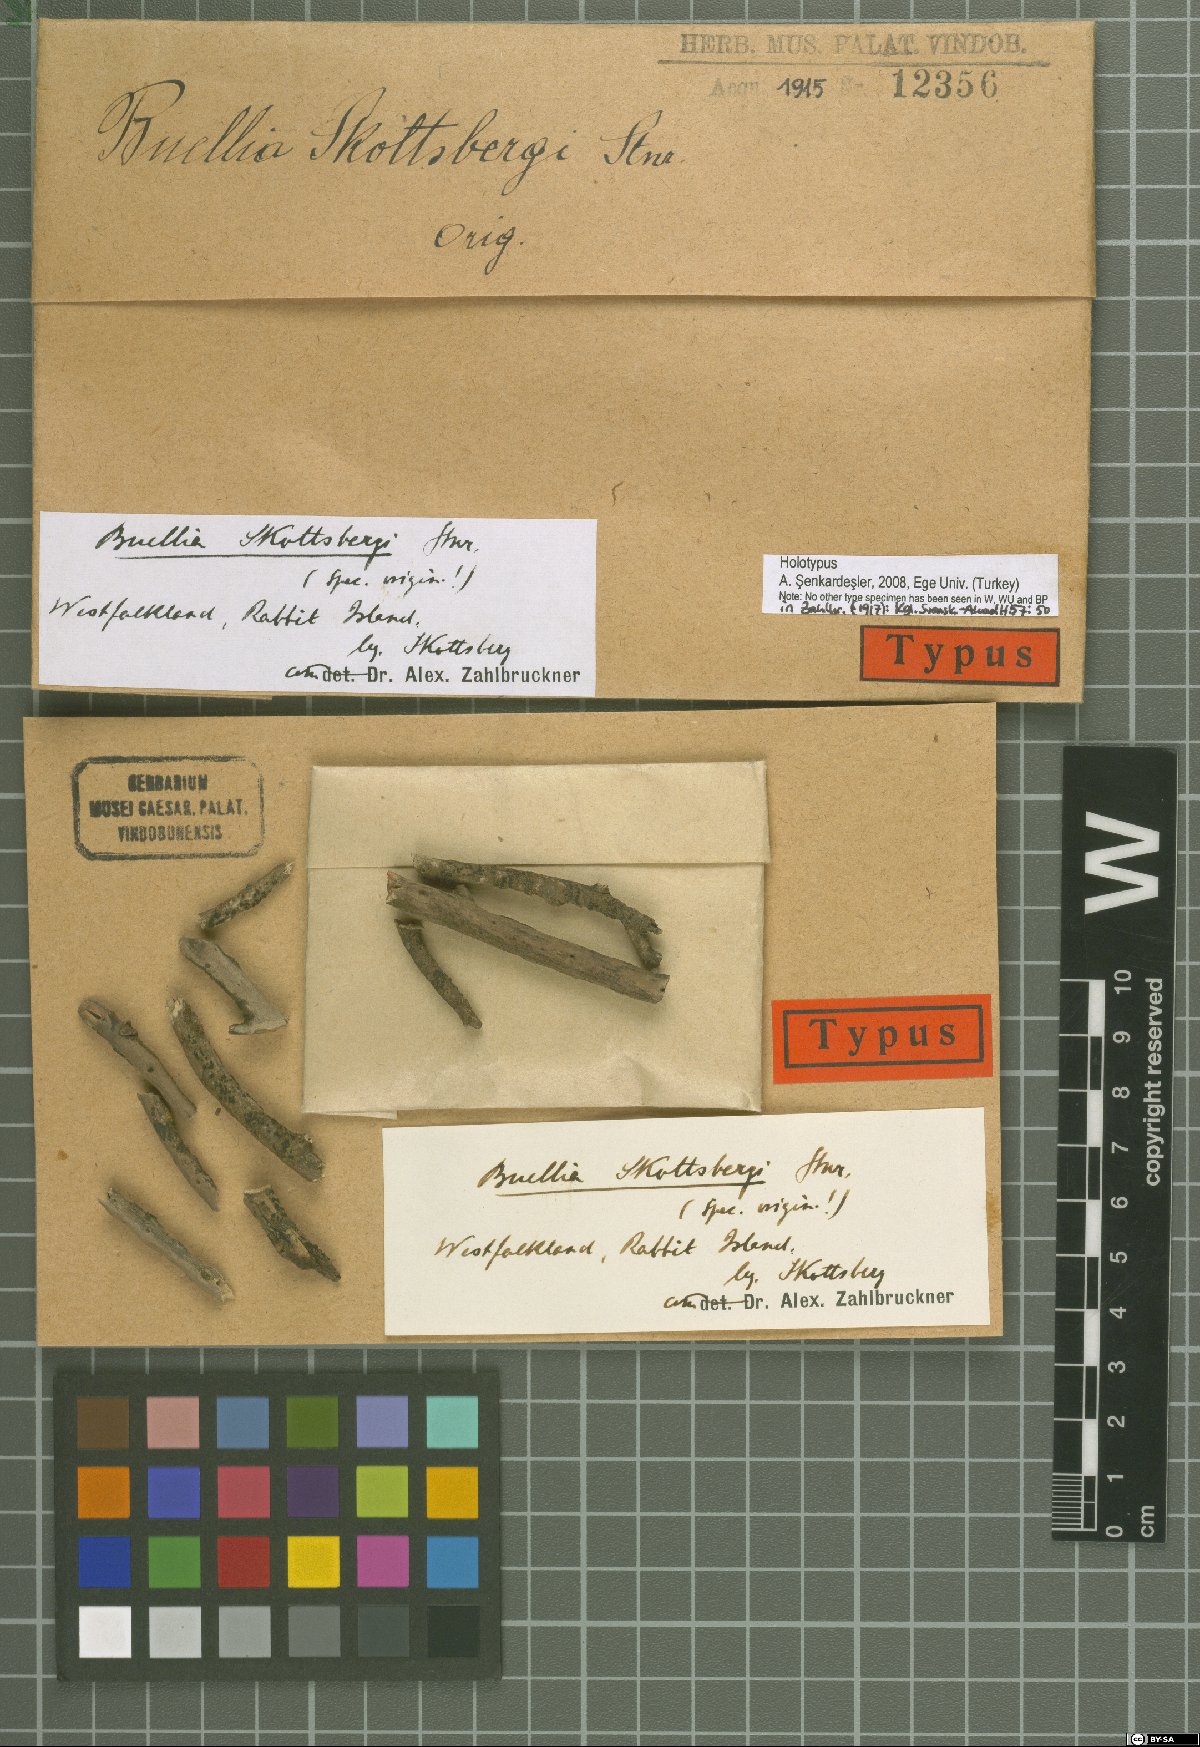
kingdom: Fungi
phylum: Ascomycota
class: Lecanoromycetes
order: Caliciales
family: Caliciaceae
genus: Amandinea
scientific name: Amandinea skottsbergii
